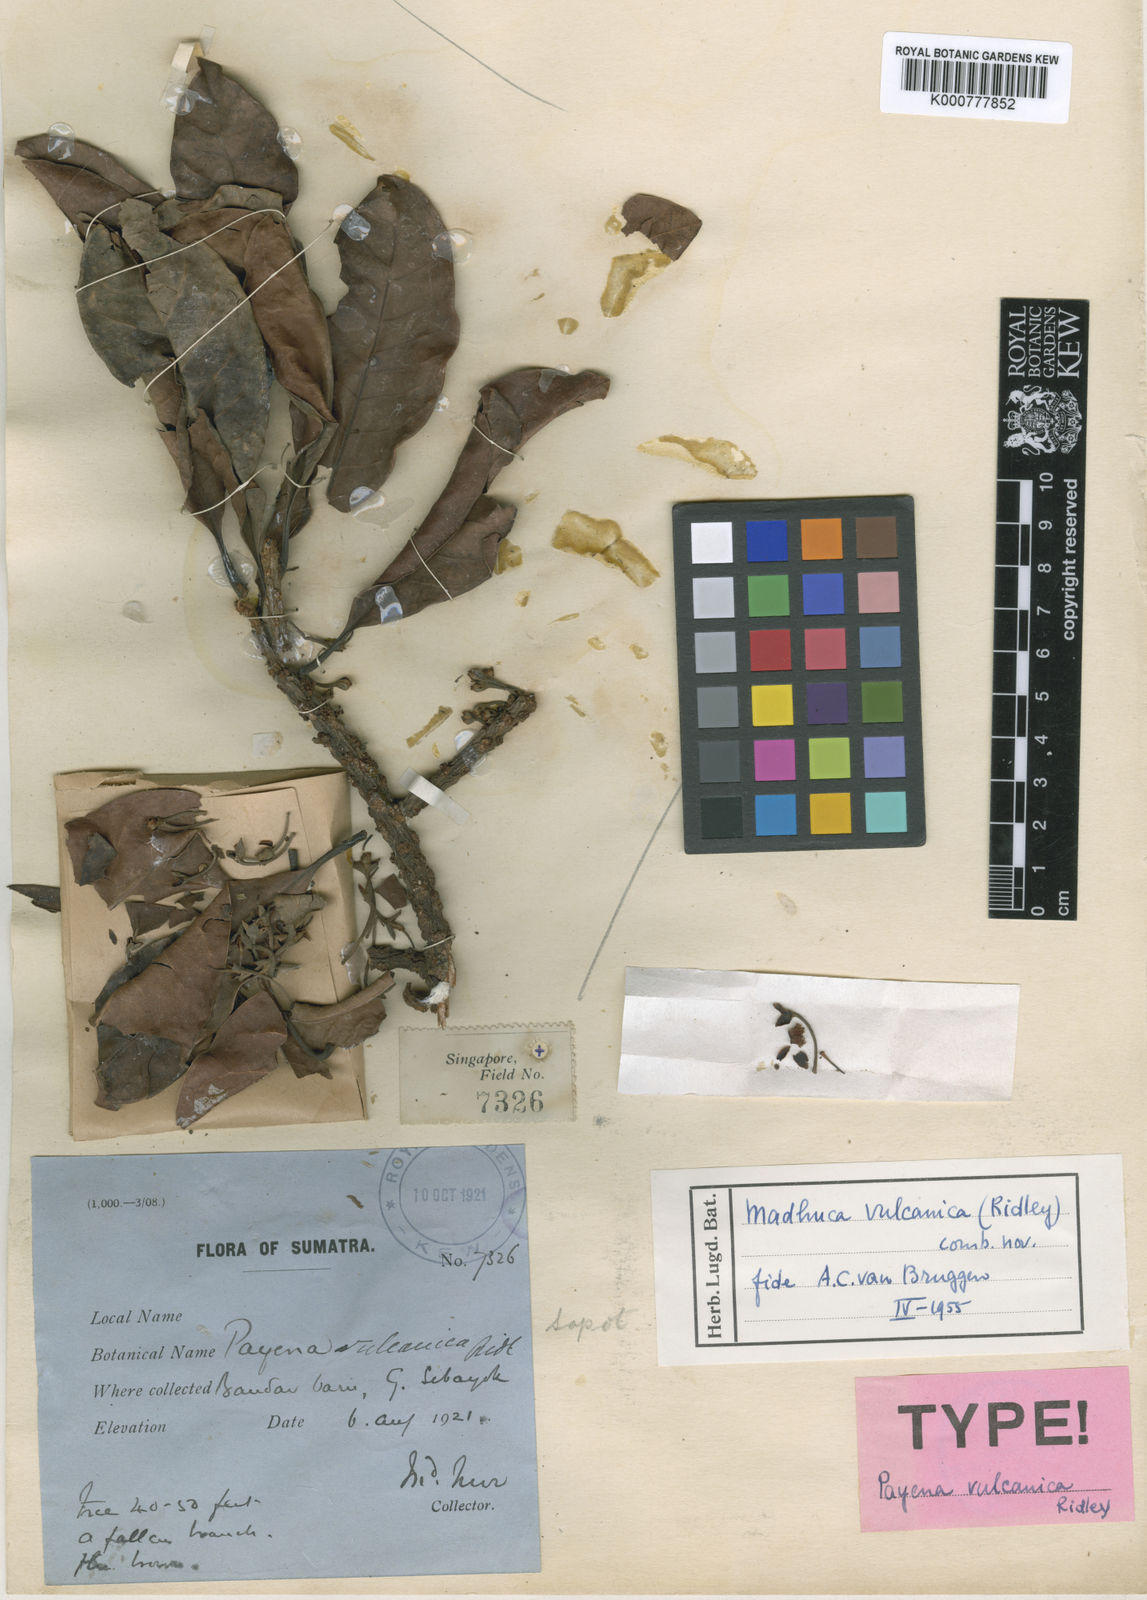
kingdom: Plantae
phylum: Tracheophyta
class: Magnoliopsida
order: Ericales
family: Sapotaceae
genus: Madhuca
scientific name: Madhuca vulcanica
